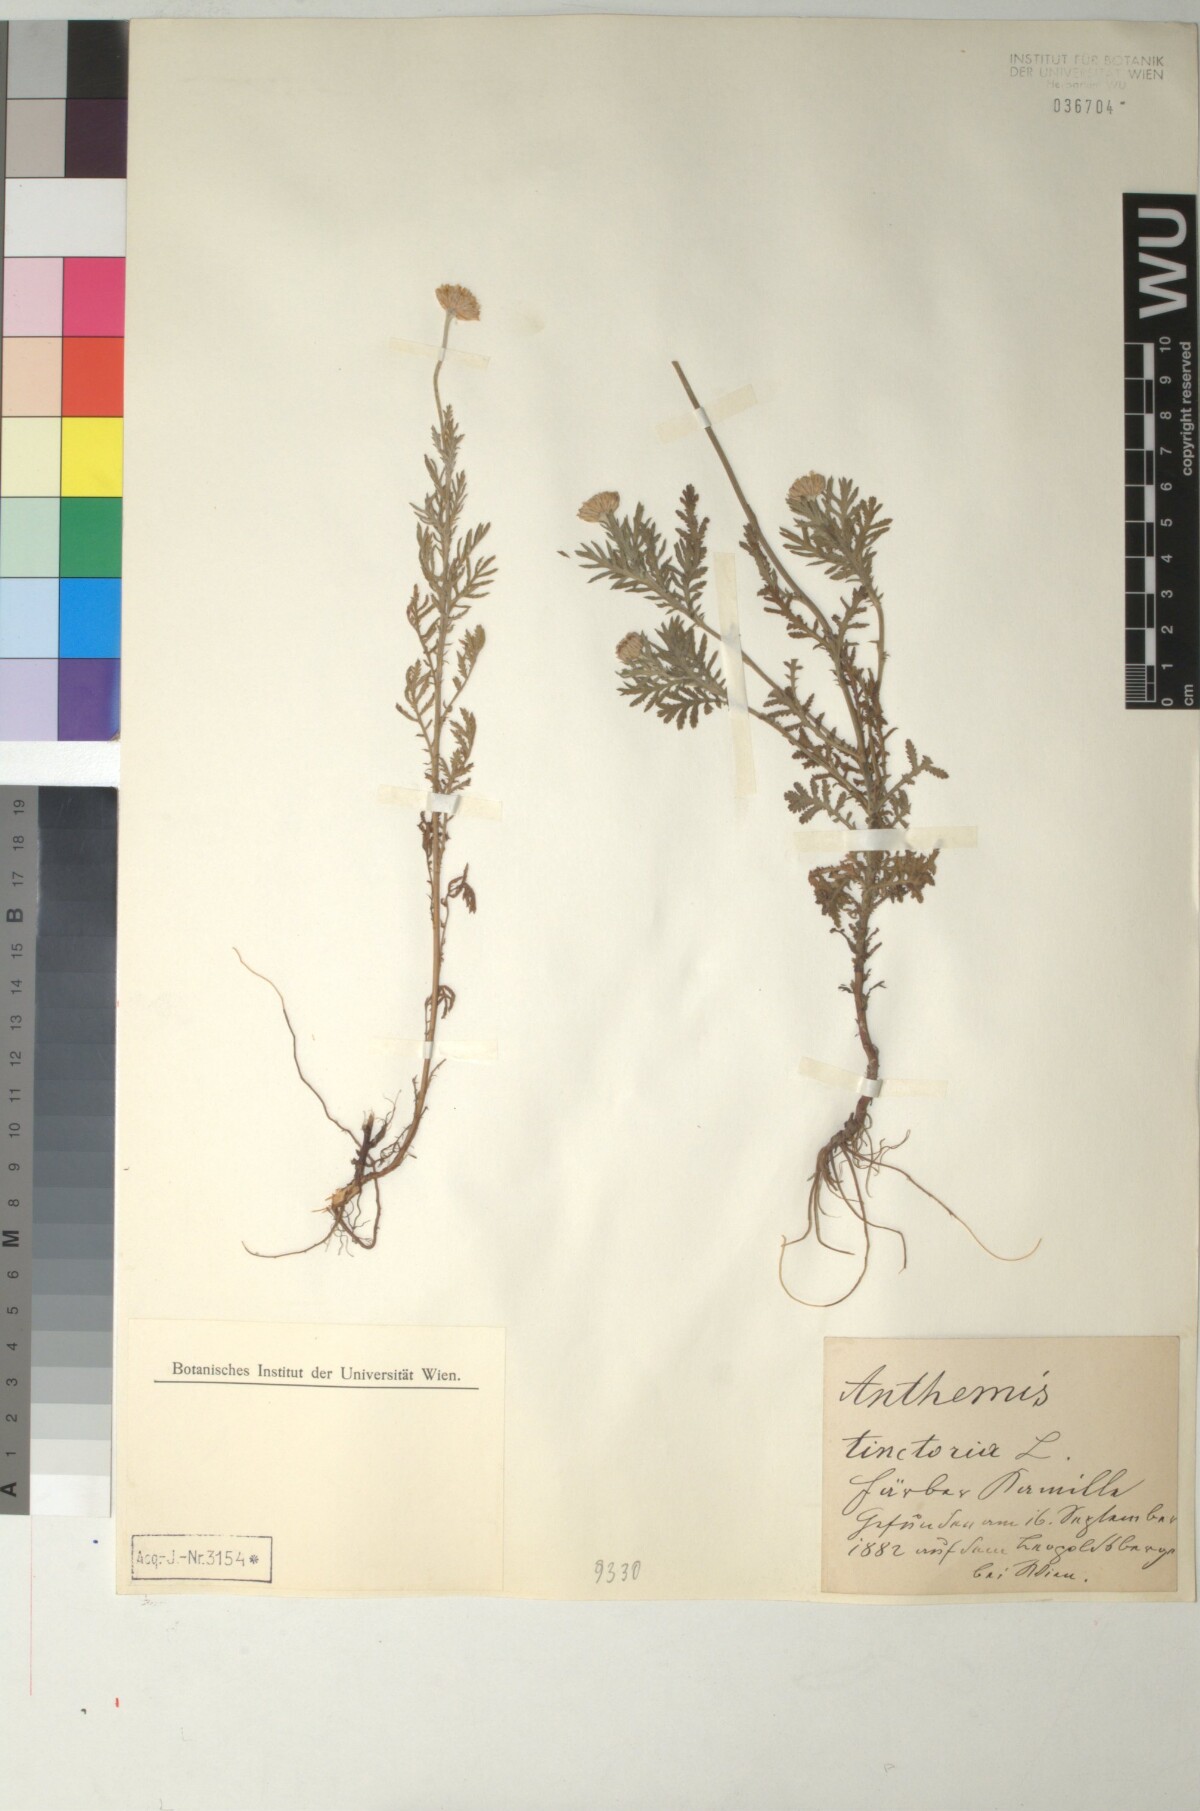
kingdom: Plantae
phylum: Tracheophyta
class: Magnoliopsida
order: Asterales
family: Asteraceae
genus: Cota
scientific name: Cota tinctoria
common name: Golden chamomile
